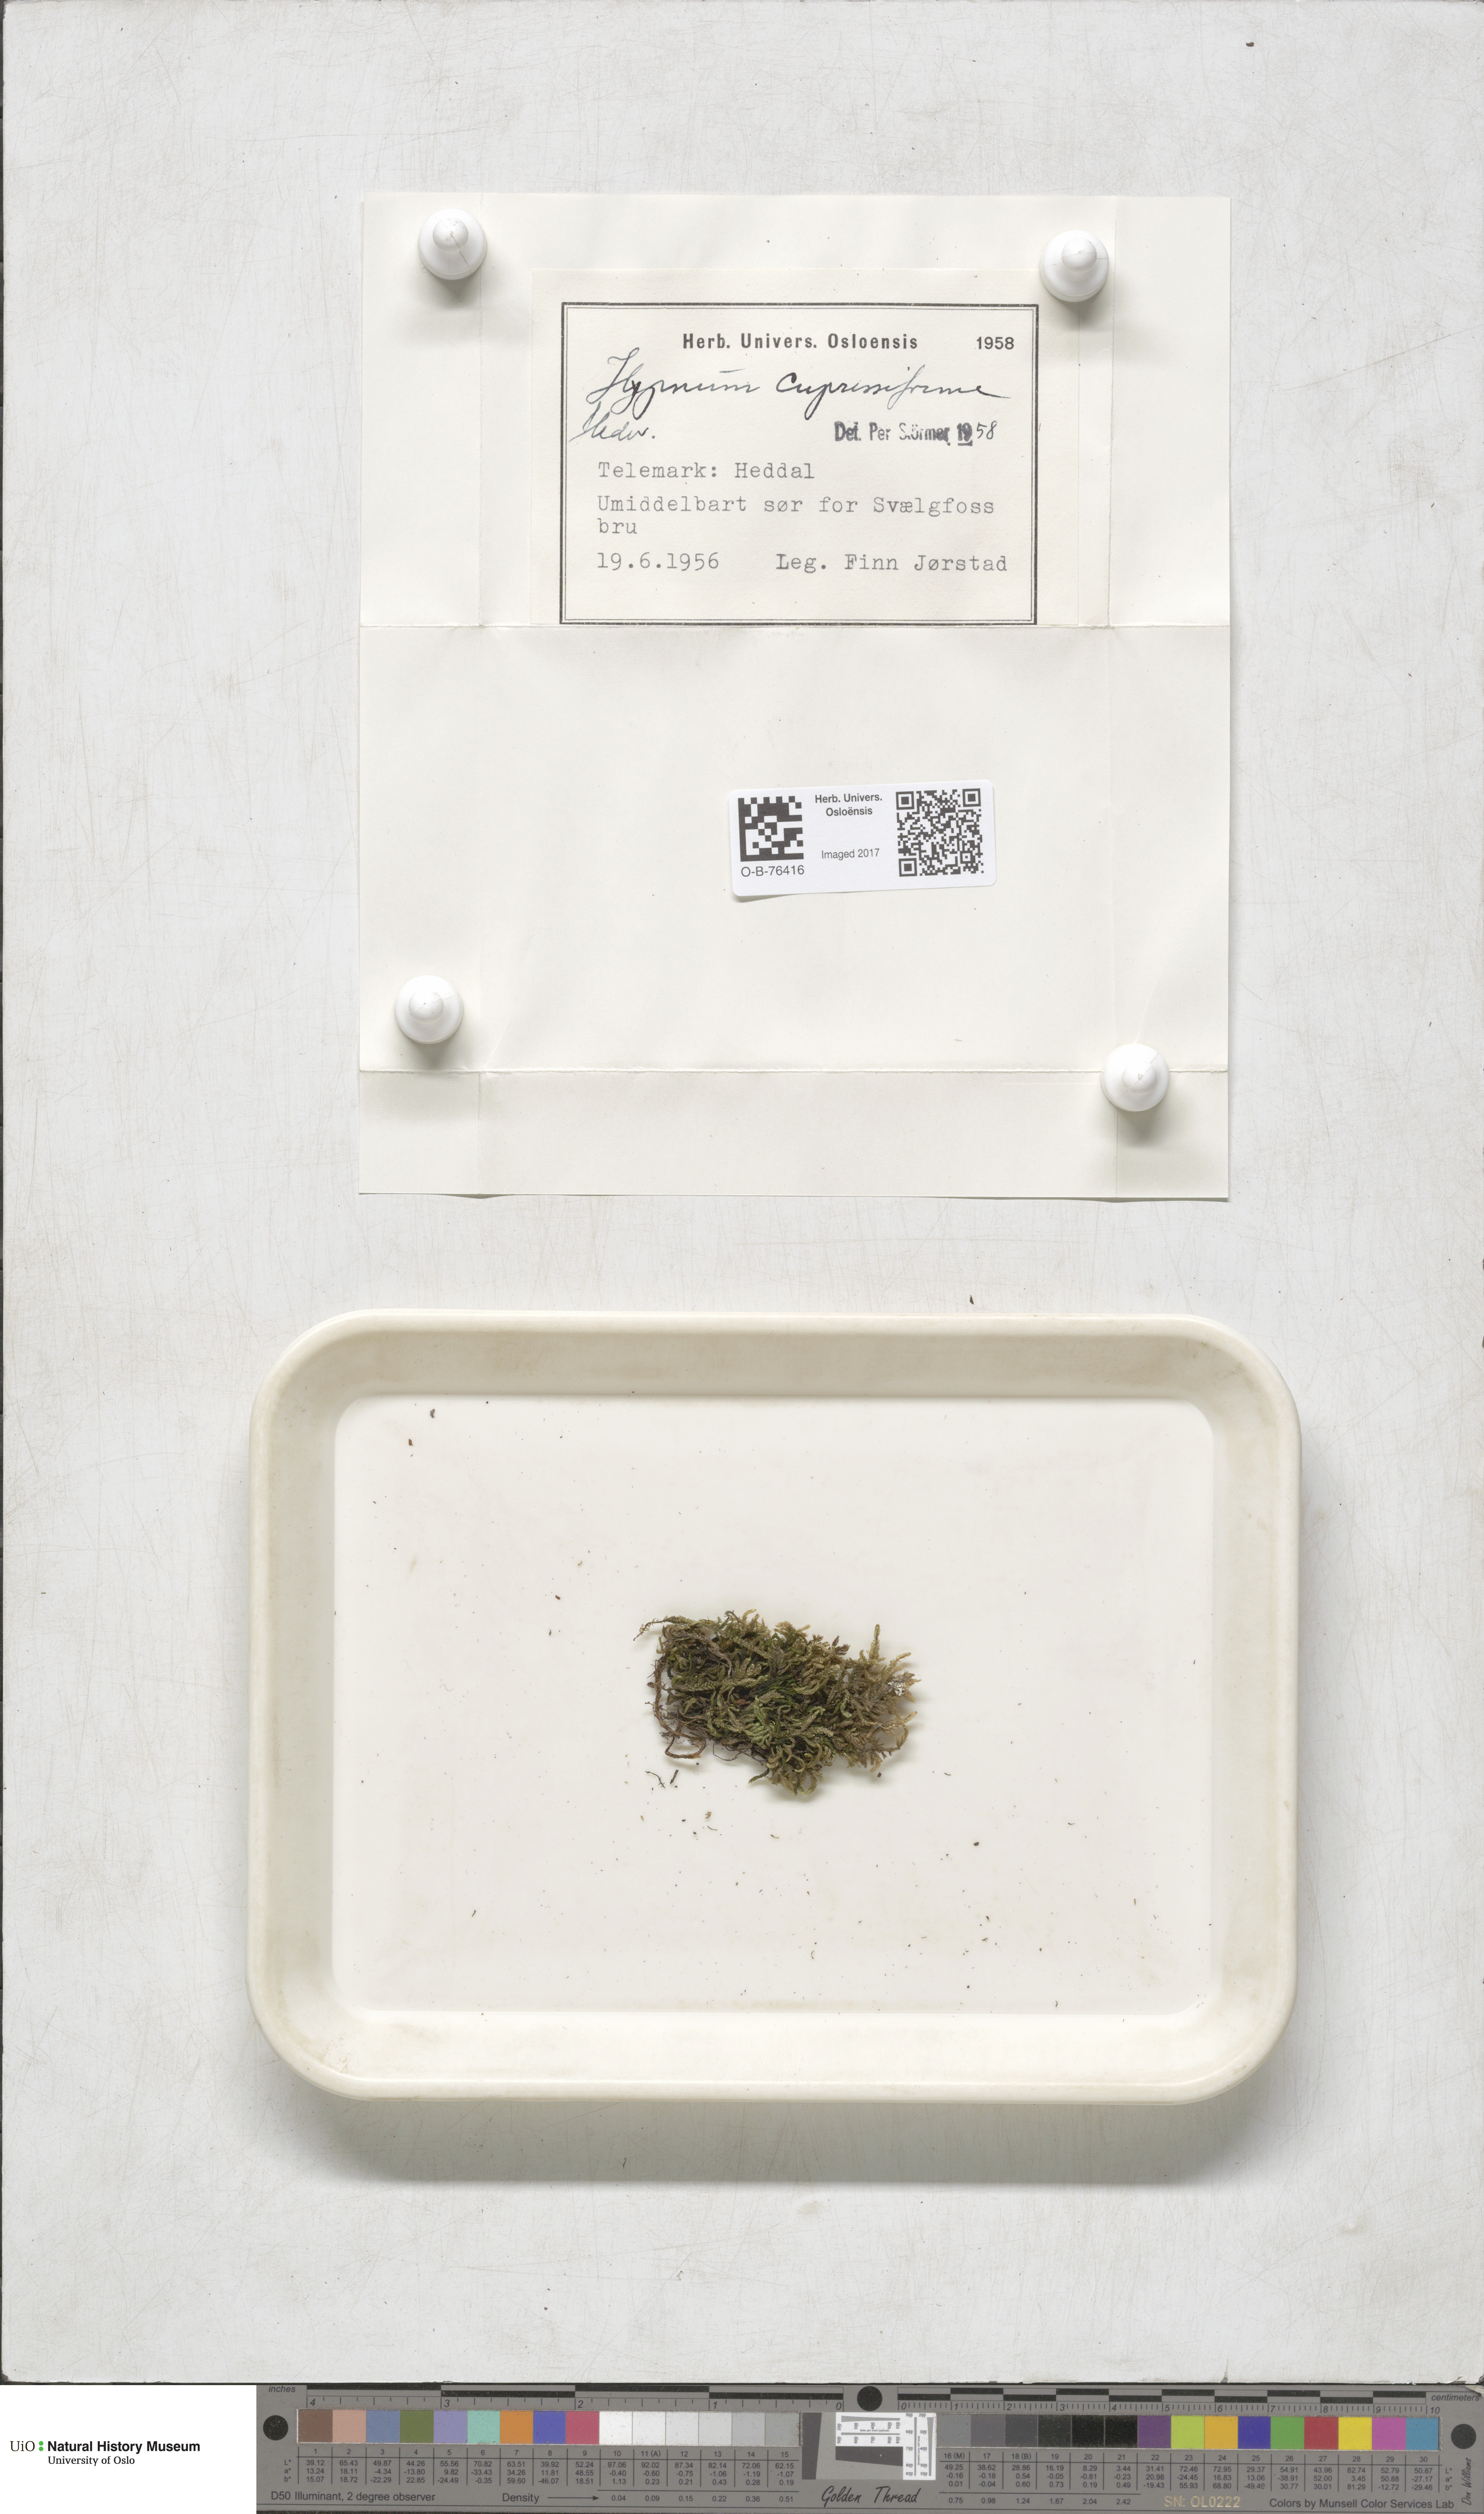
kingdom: Plantae
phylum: Bryophyta
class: Bryopsida
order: Hypnales
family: Hypnaceae
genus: Hypnum
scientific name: Hypnum cupressiforme
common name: Cypress-leaved plait-moss
